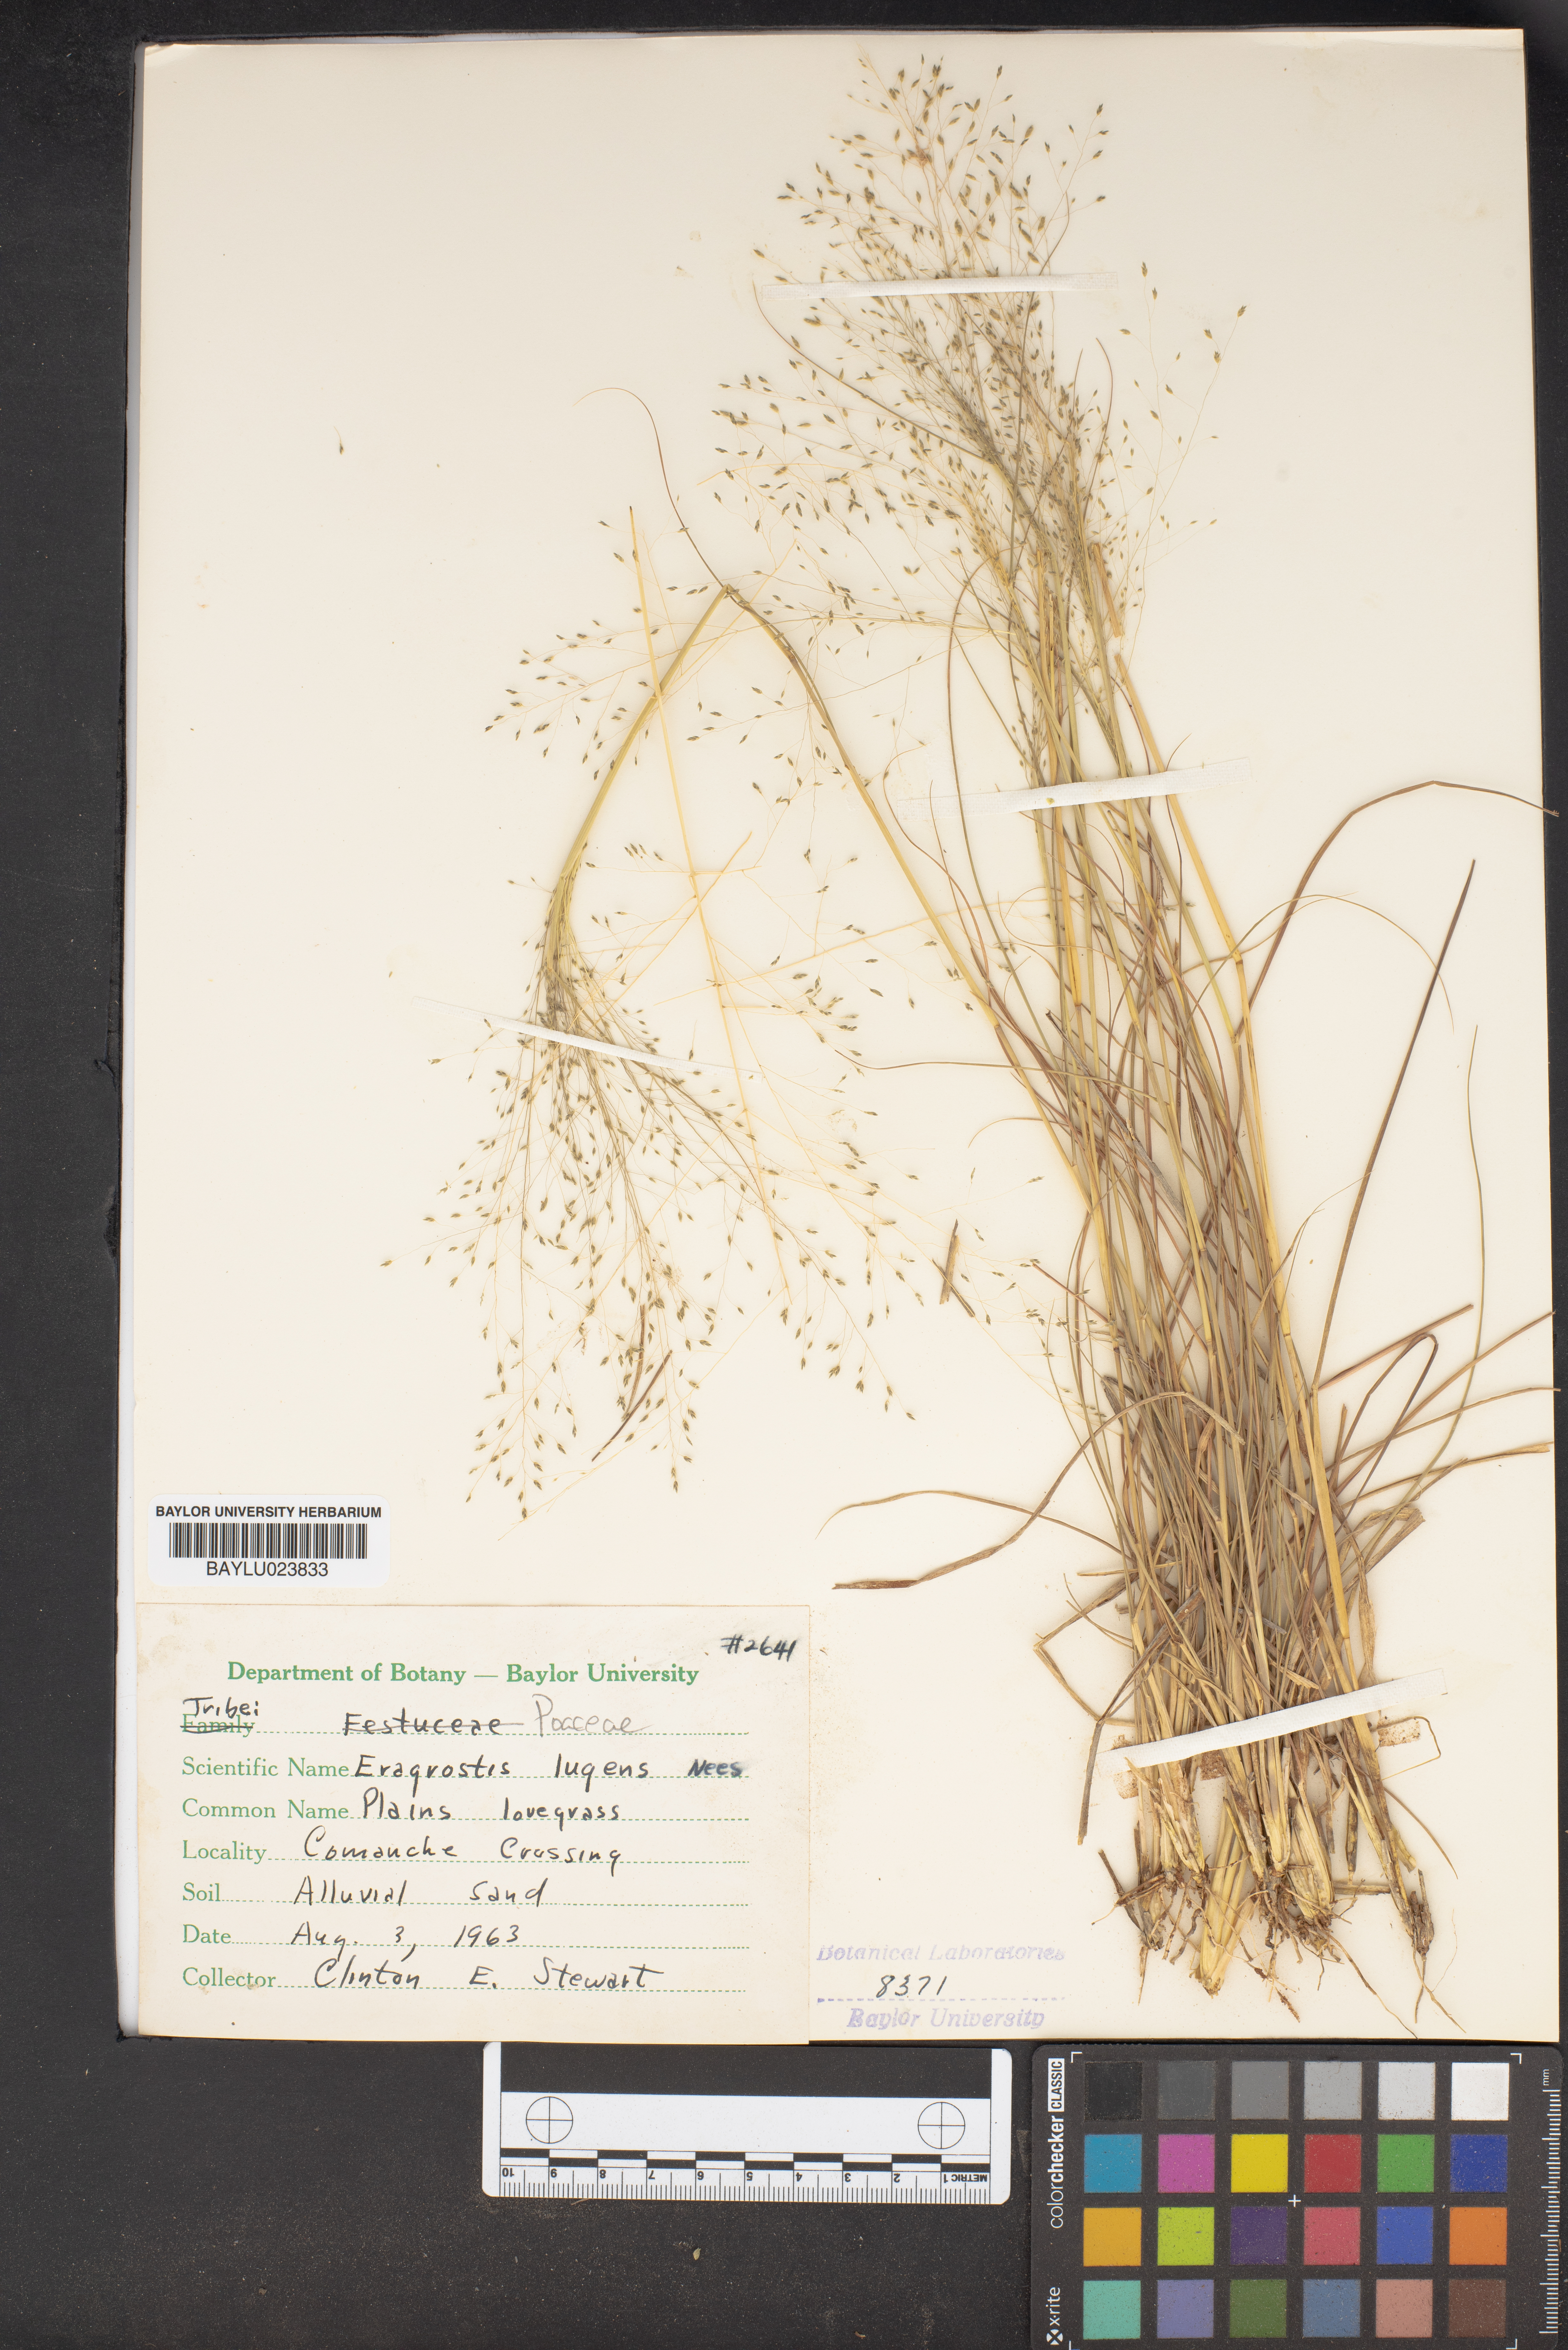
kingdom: Plantae
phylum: Tracheophyta
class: Liliopsida
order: Poales
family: Poaceae
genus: Eragrostis
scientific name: Eragrostis capillaris
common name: Hair-like lovegrass
